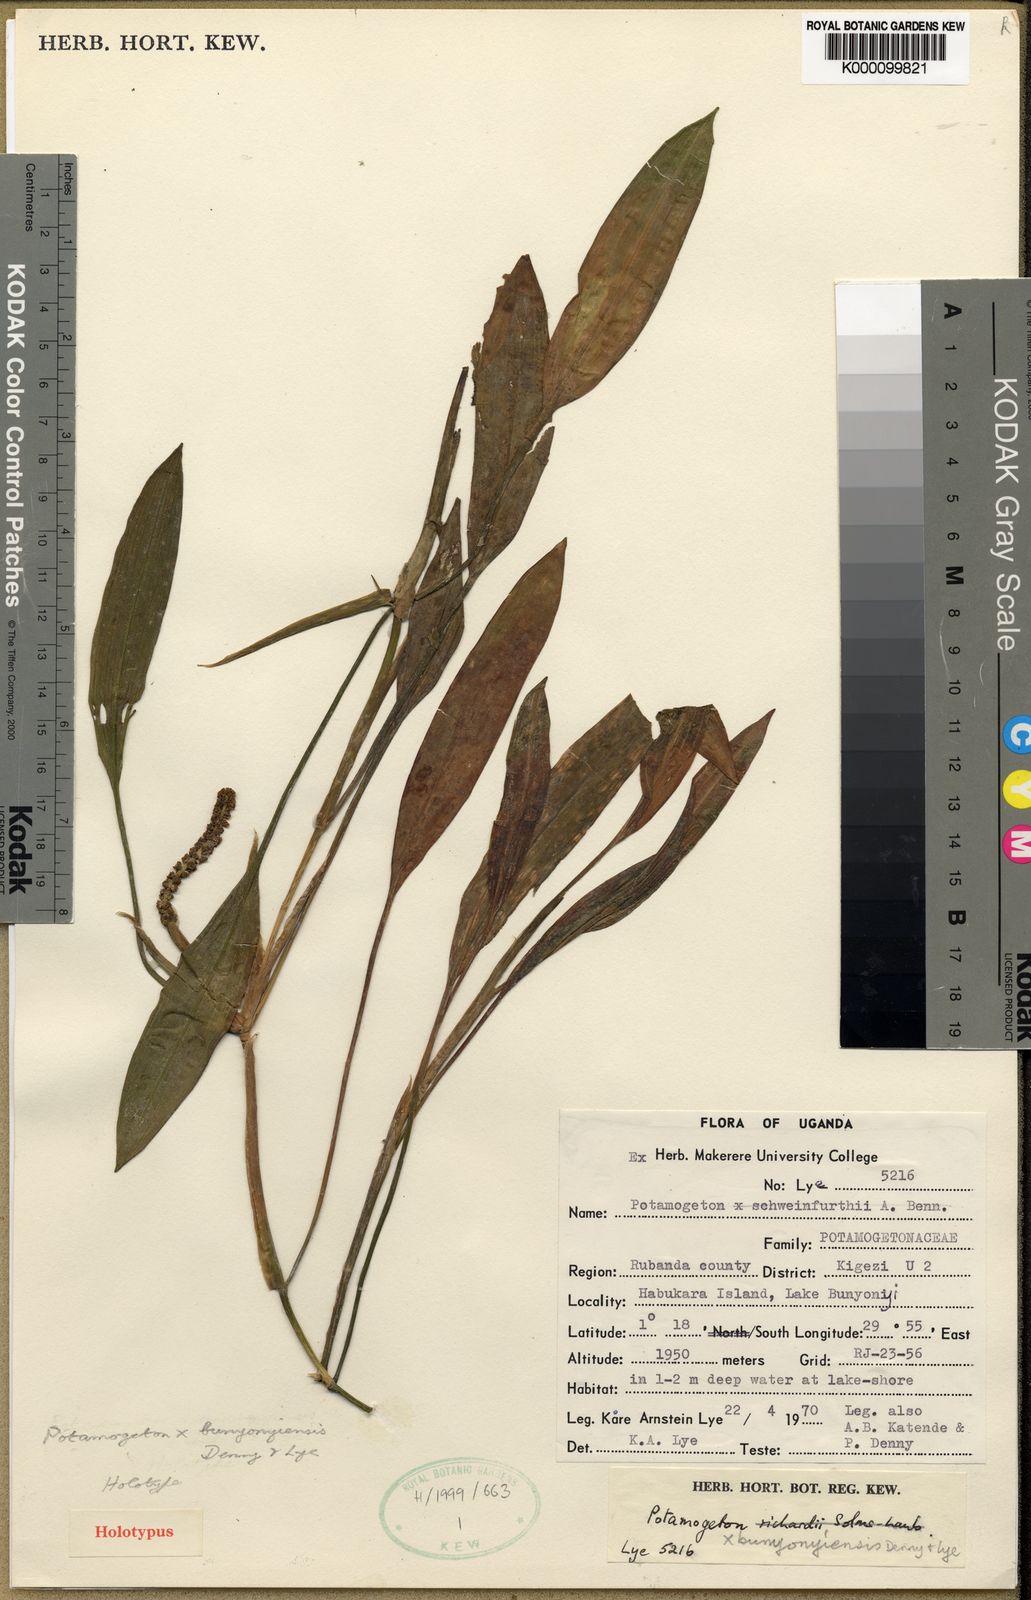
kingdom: Plantae
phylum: Tracheophyta
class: Liliopsida
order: Alismatales
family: Potamogetonaceae
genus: Potamogeton
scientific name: Potamogeton schweinfurthii
